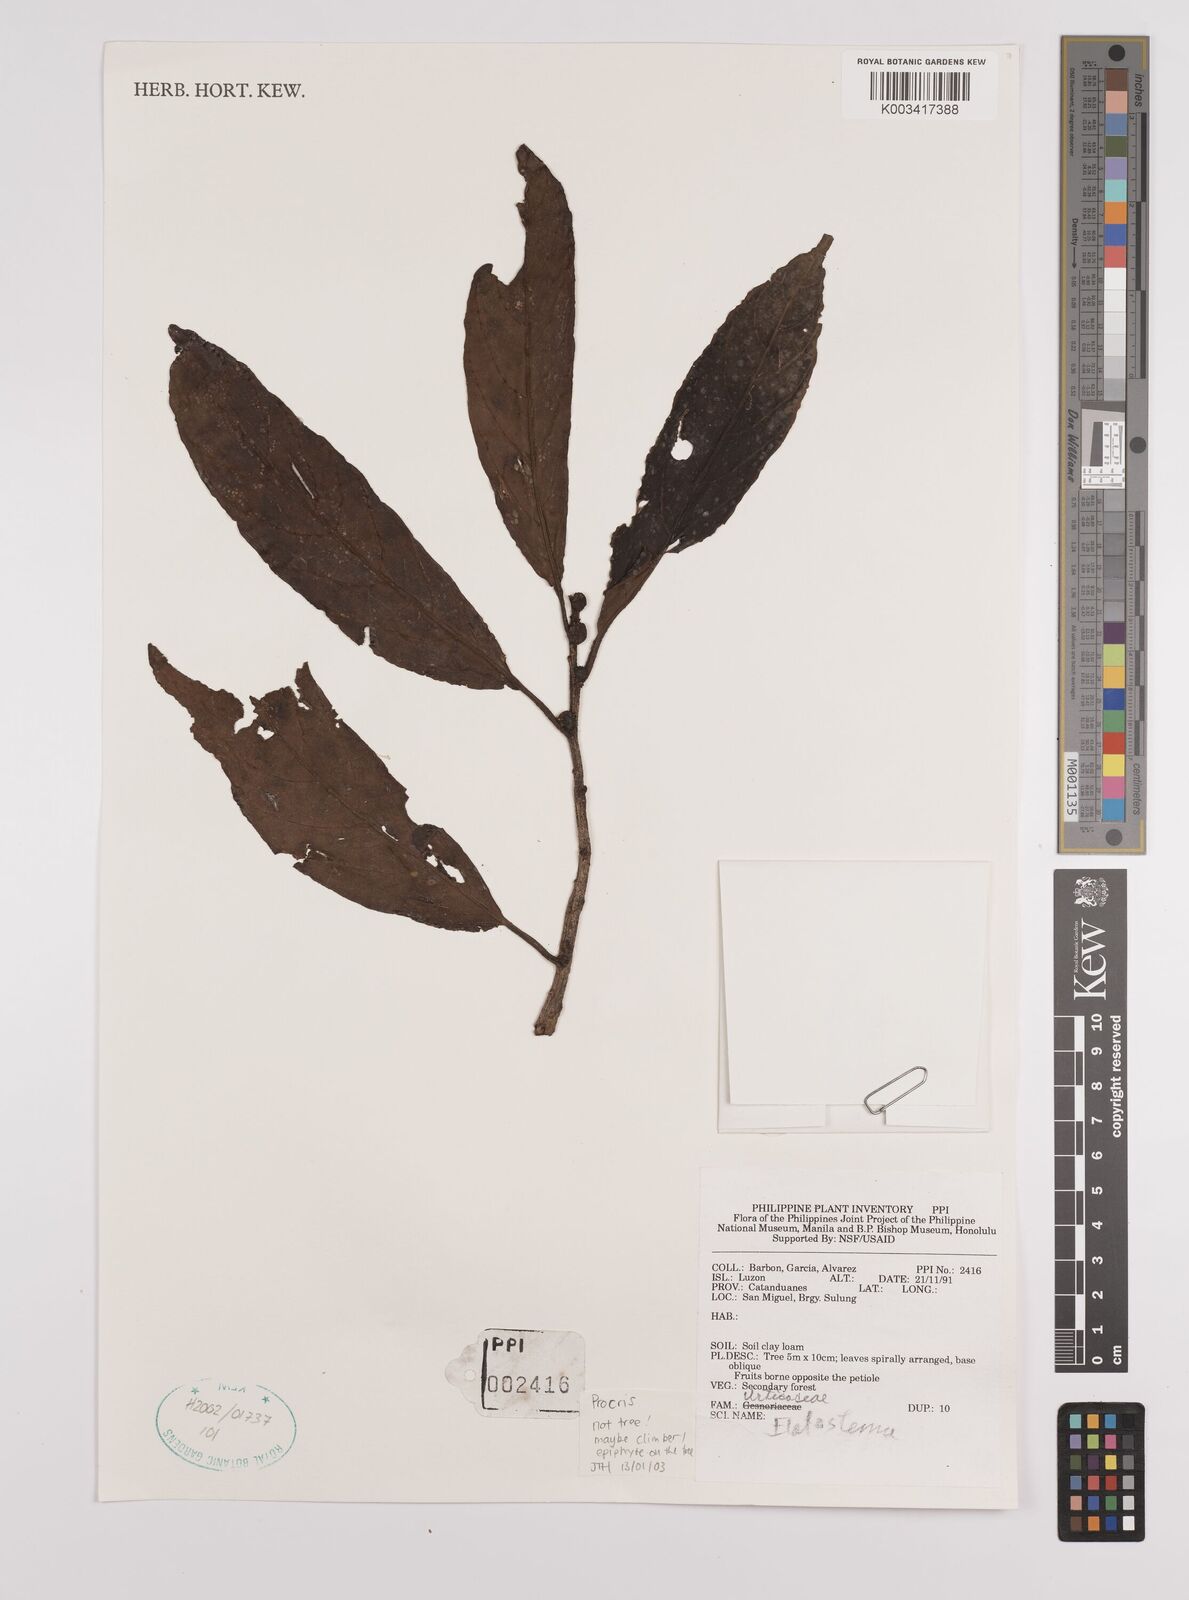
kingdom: Plantae
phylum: Tracheophyta
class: Magnoliopsida
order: Rosales
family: Urticaceae
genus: Procris
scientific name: Procris
